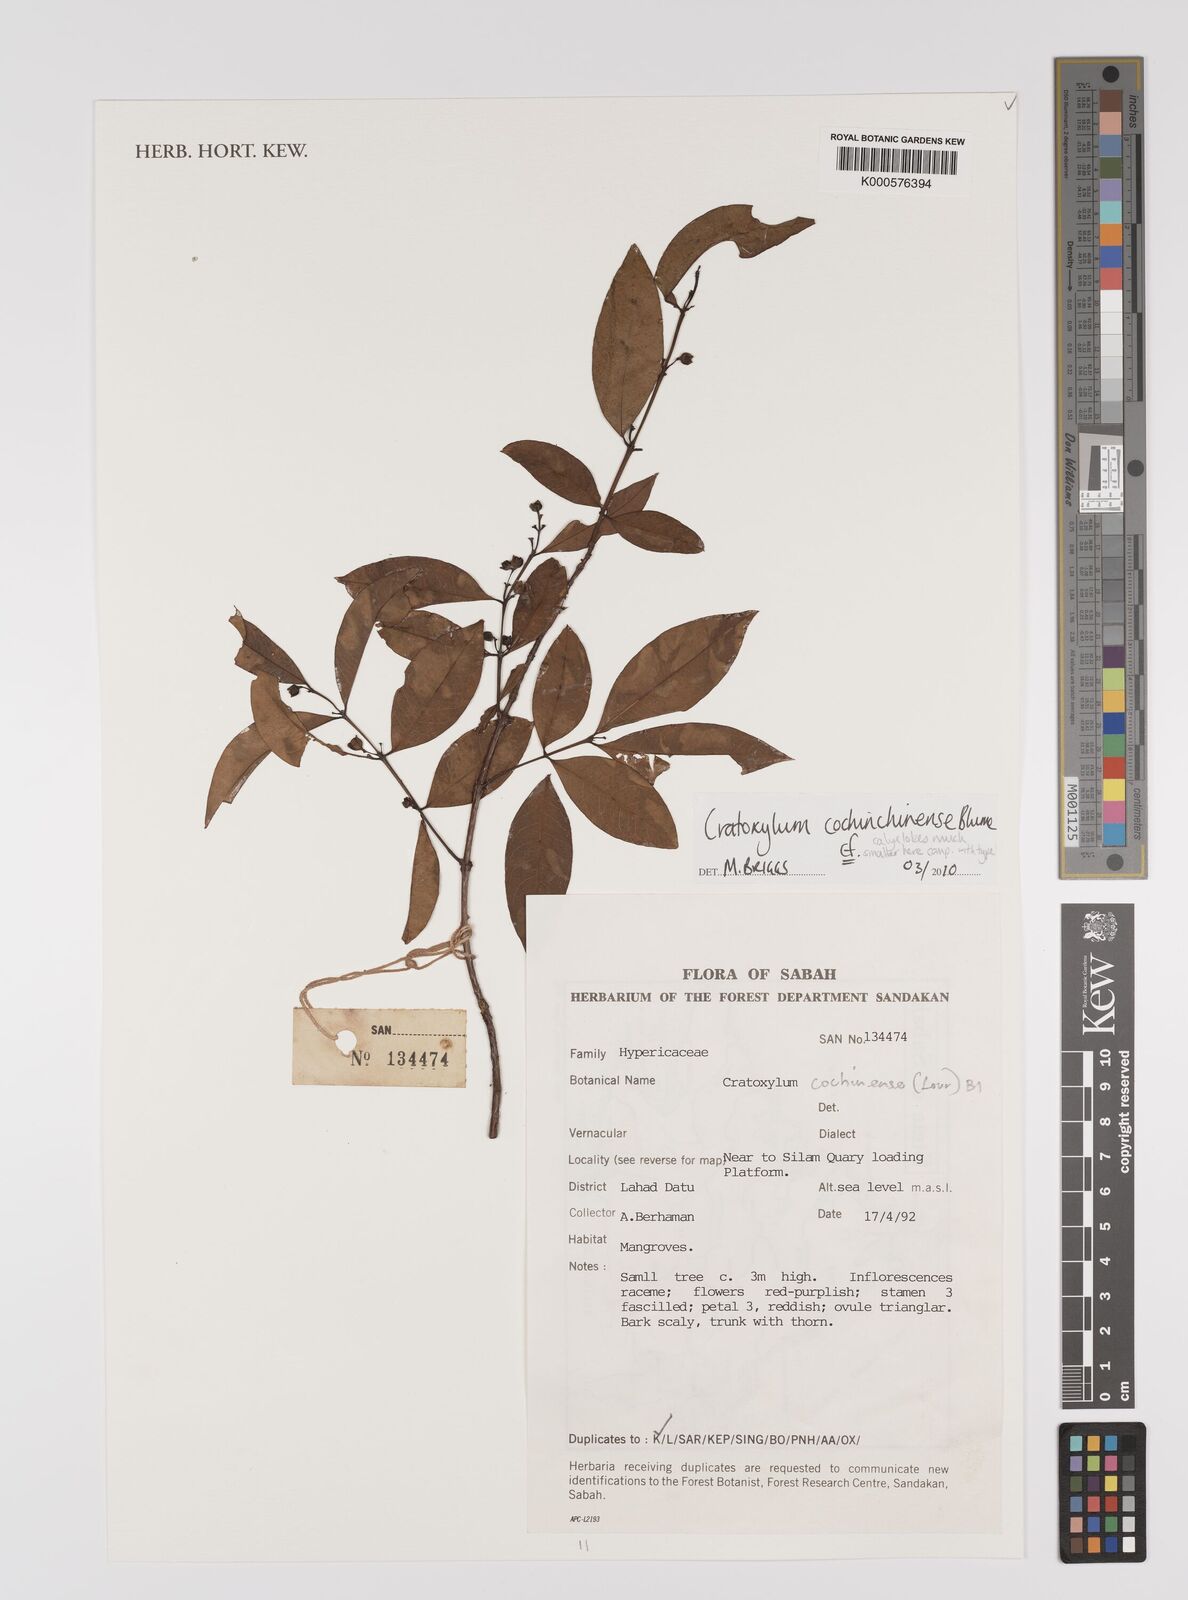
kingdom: Plantae
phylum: Tracheophyta
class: Magnoliopsida
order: Malpighiales
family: Hypericaceae
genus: Cratoxylum
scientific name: Cratoxylum cochinchinense
